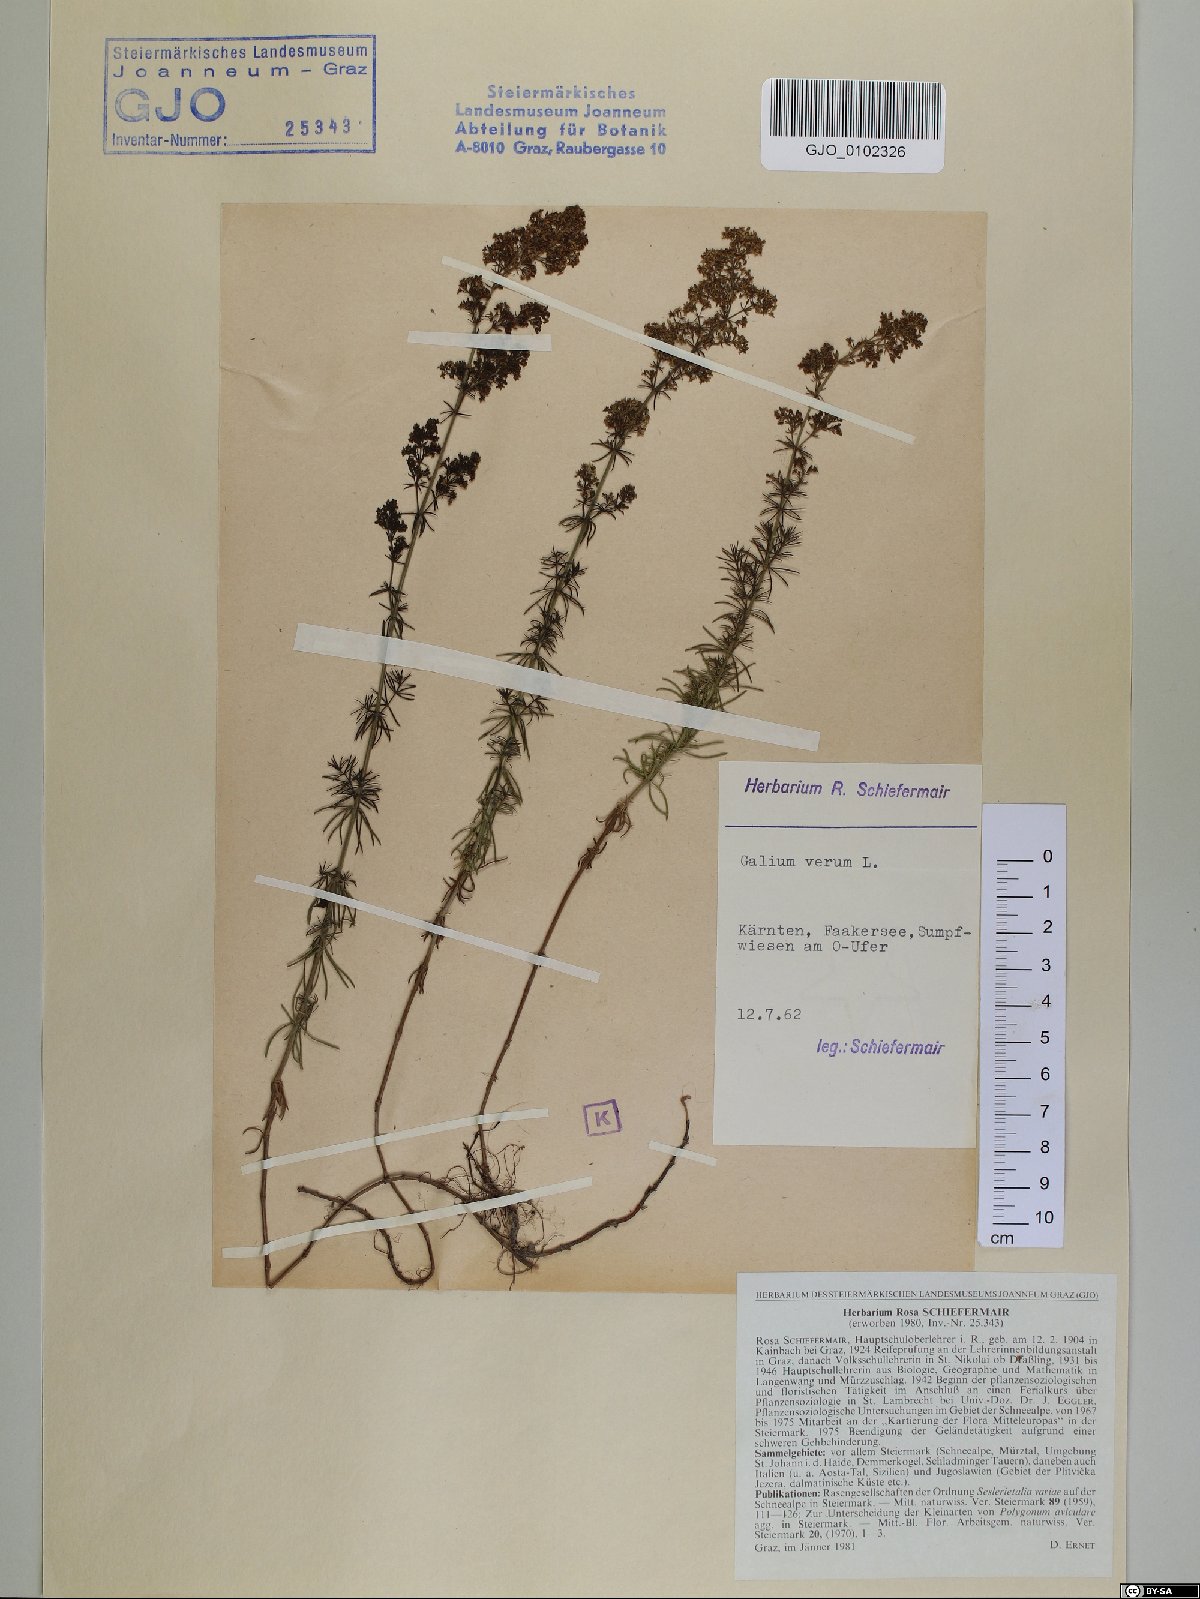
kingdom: Plantae
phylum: Tracheophyta
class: Magnoliopsida
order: Gentianales
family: Rubiaceae
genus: Galium
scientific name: Galium verum
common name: Lady's bedstraw
